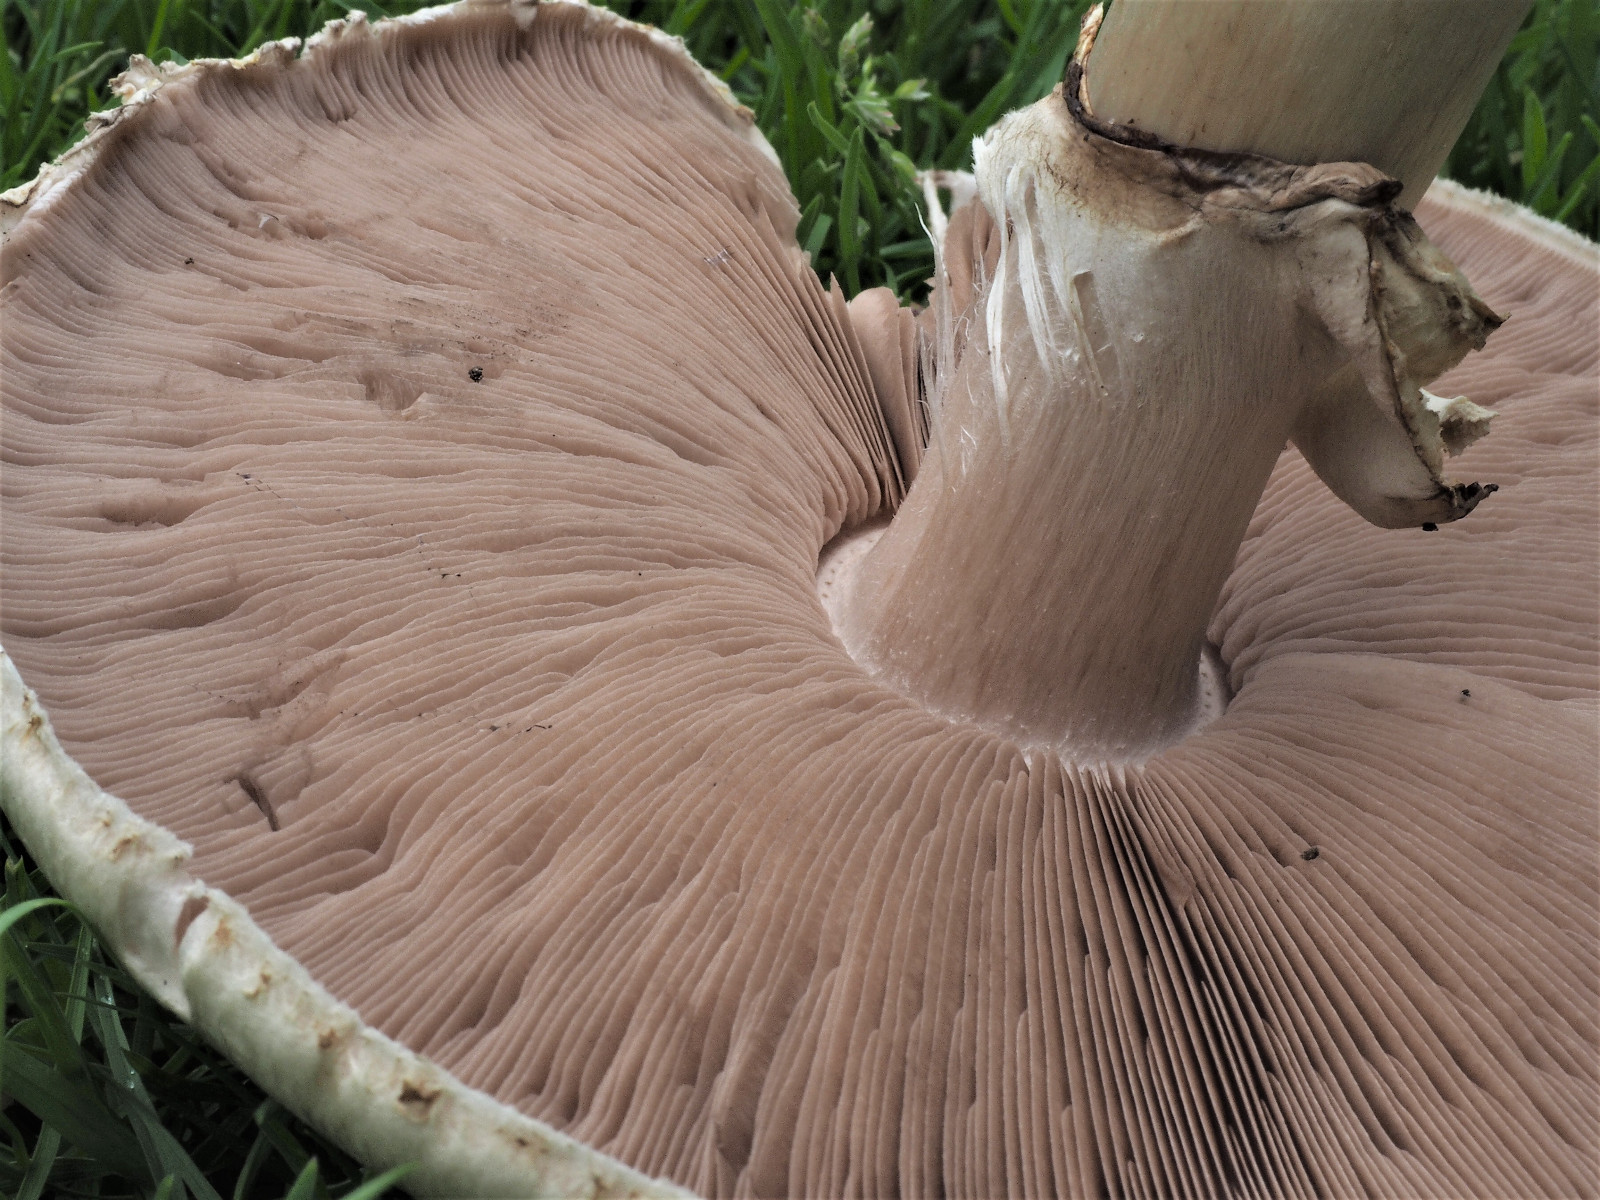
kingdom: Fungi
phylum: Basidiomycota
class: Agaricomycetes
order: Agaricales
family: Agaricaceae
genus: Agaricus
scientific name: Agaricus
